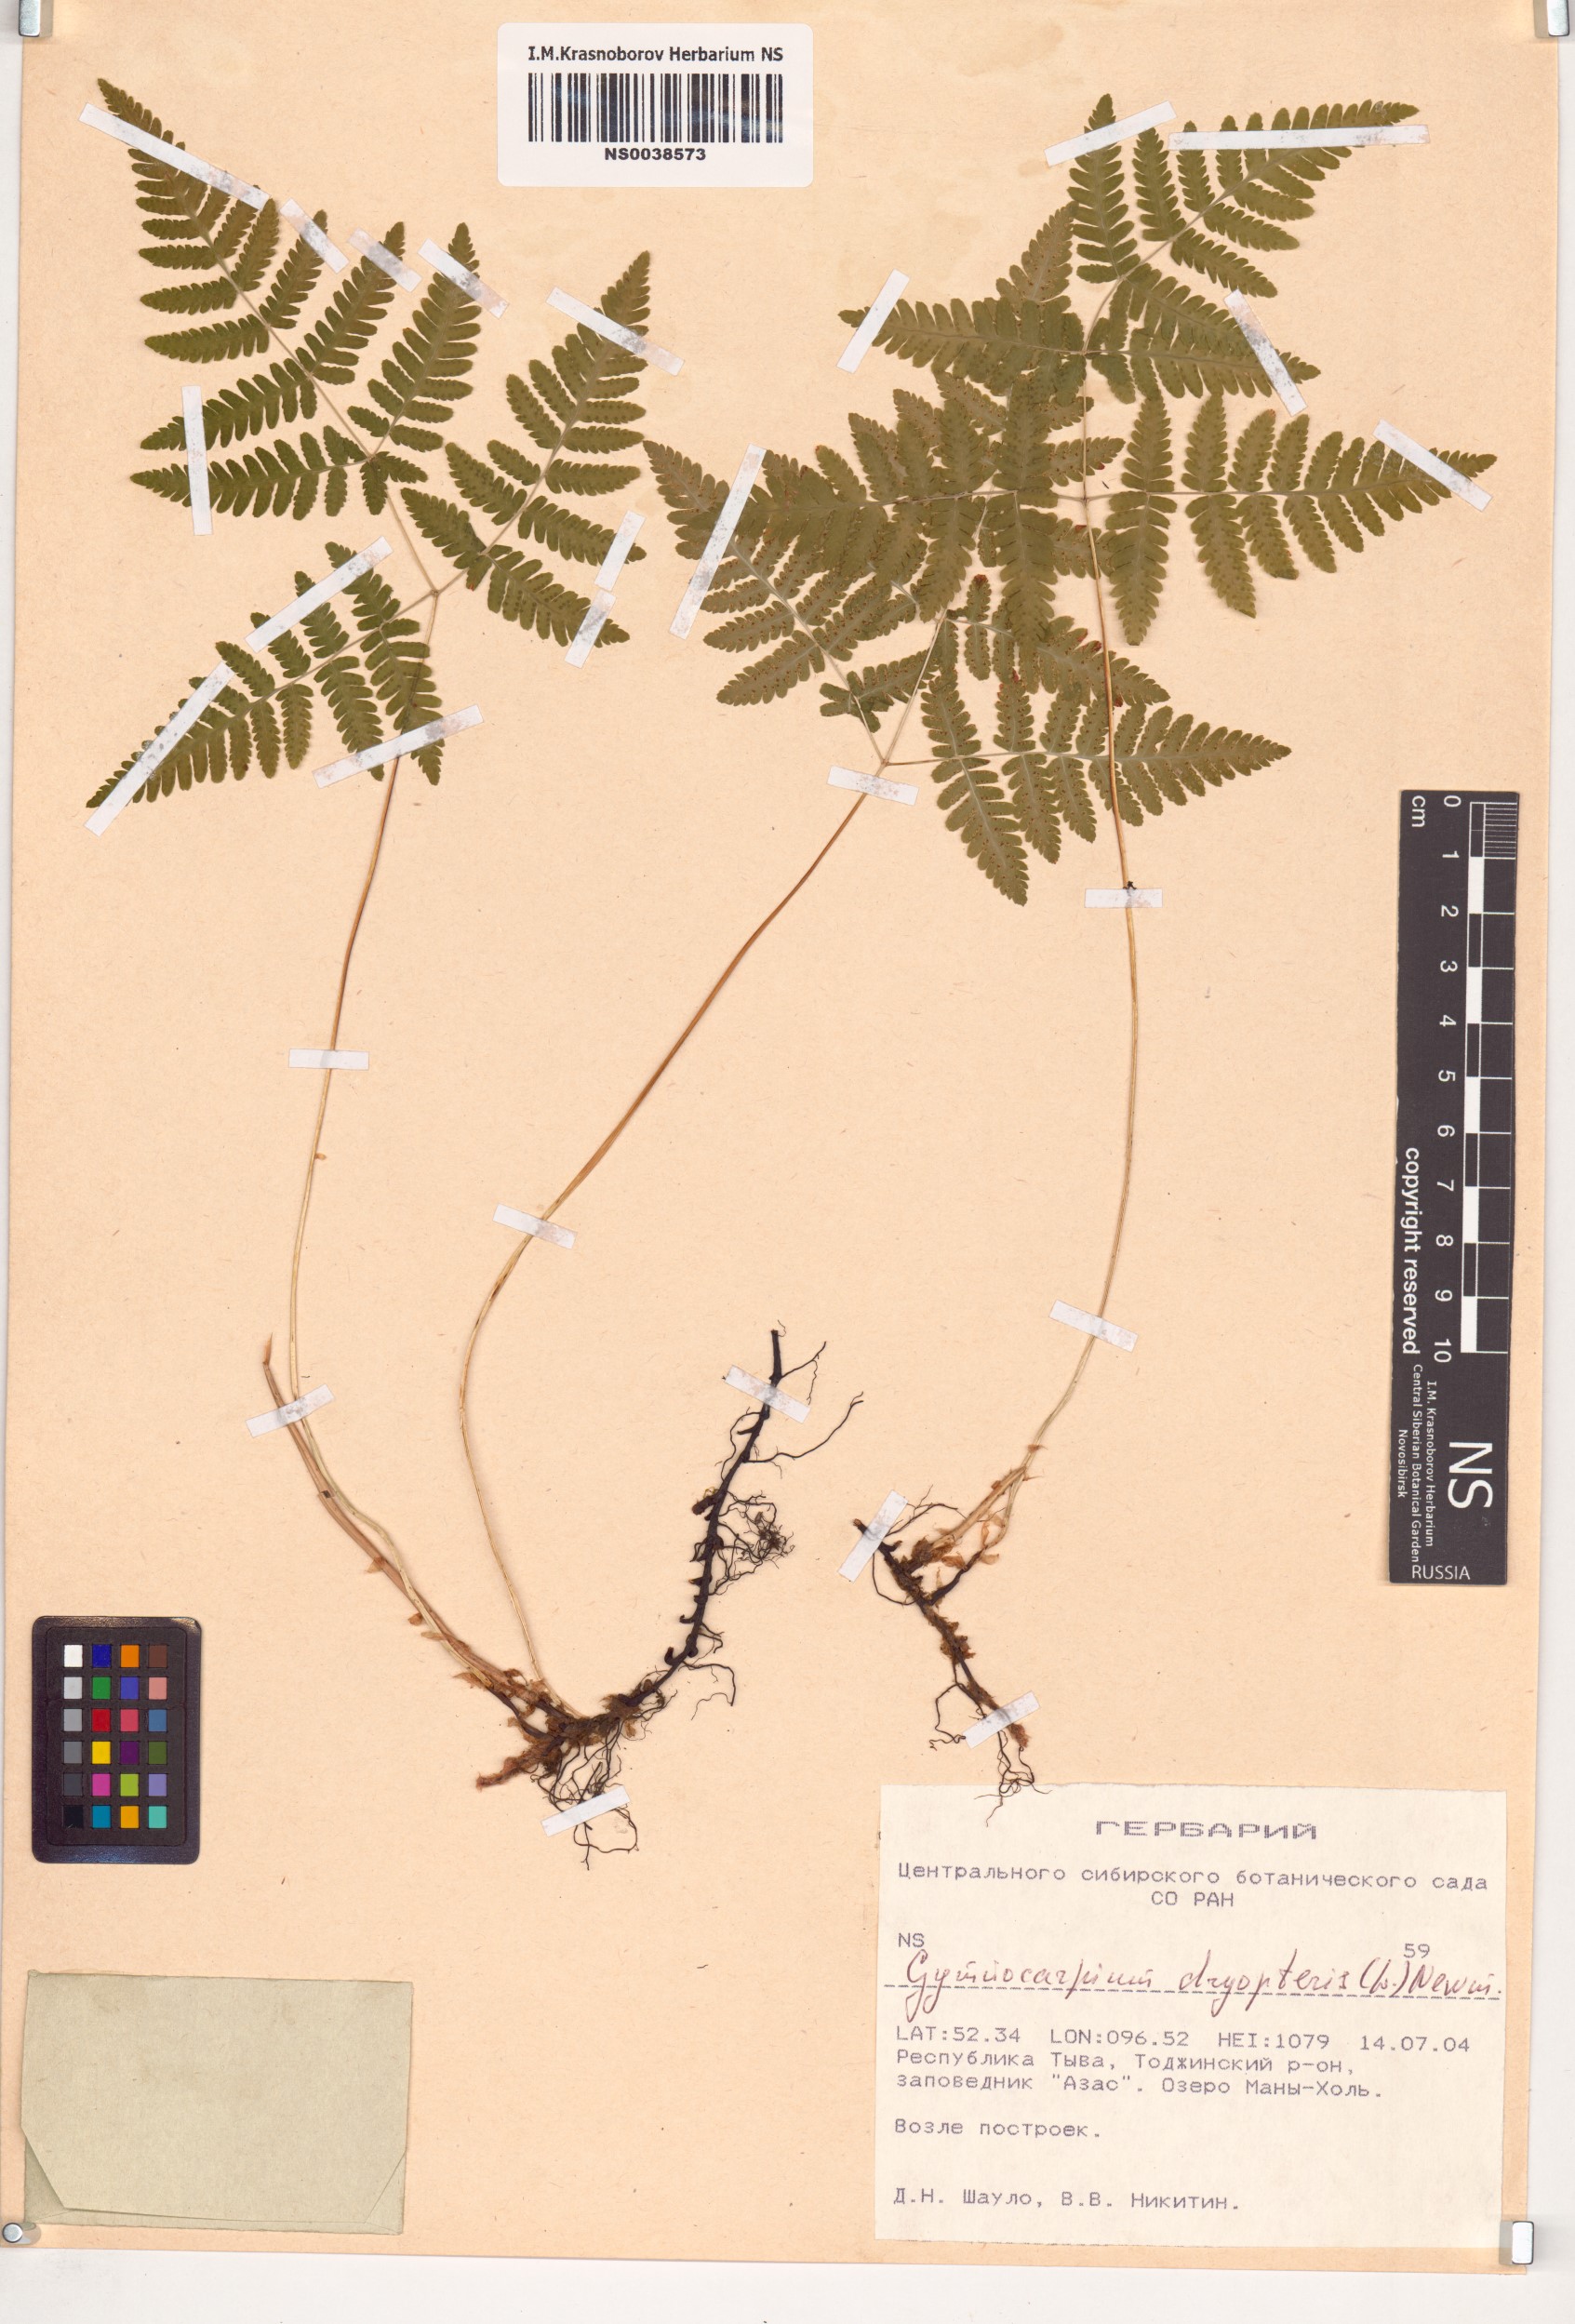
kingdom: Plantae
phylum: Tracheophyta
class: Polypodiopsida
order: Polypodiales
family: Cystopteridaceae
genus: Gymnocarpium
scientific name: Gymnocarpium dryopteris
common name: Oak fern
